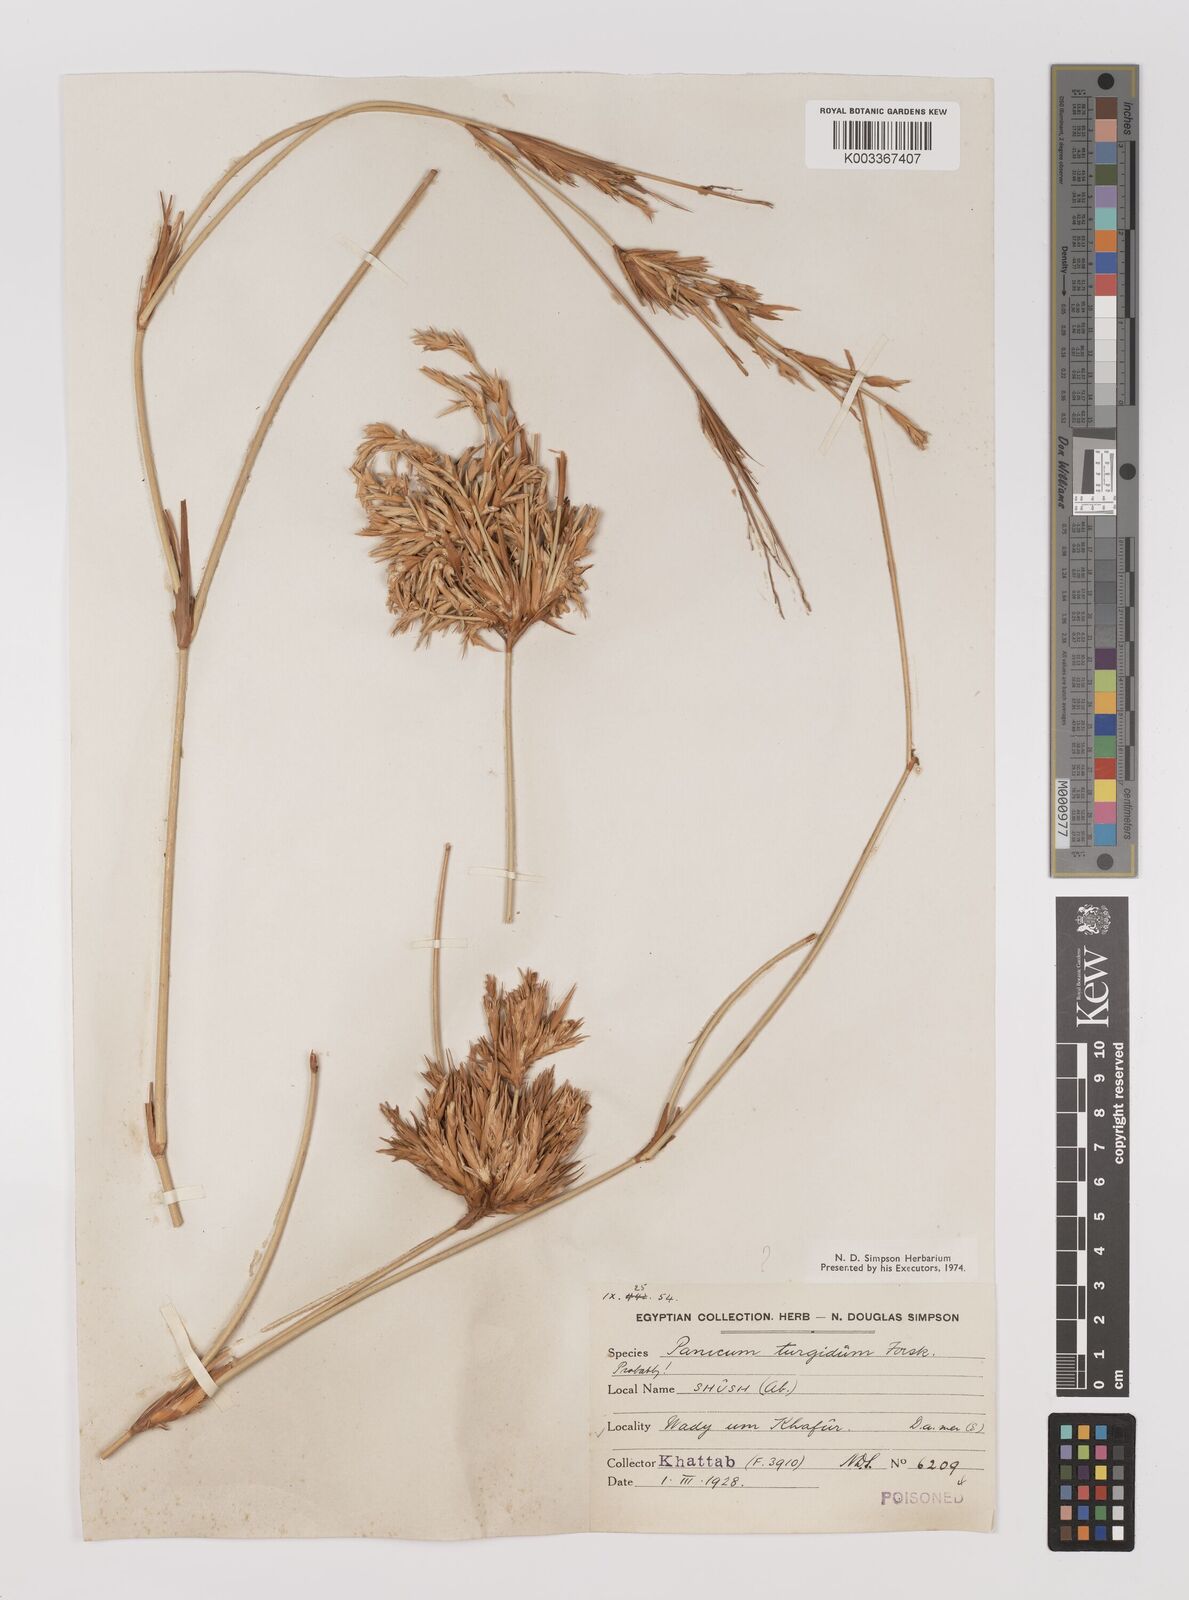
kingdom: Plantae
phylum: Tracheophyta
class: Liliopsida
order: Poales
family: Poaceae
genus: Panicum
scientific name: Panicum turgidum
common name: Desert grass
